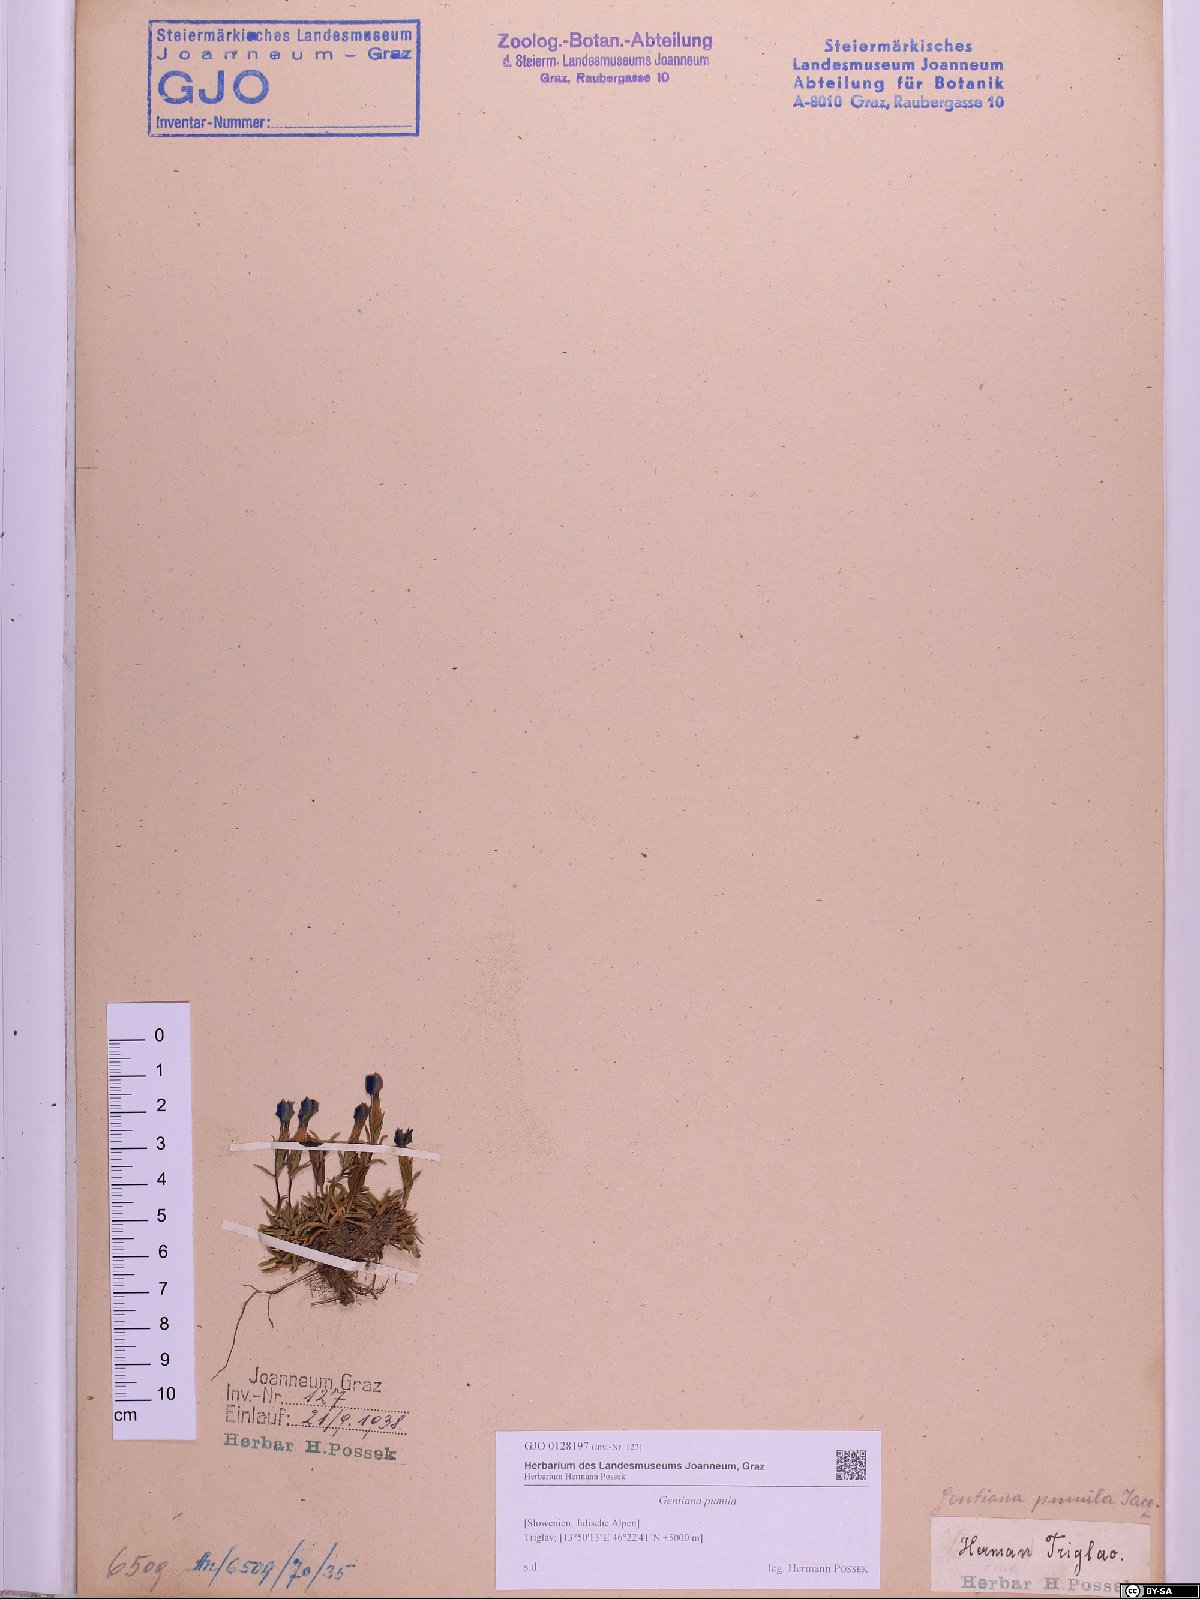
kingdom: Plantae
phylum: Tracheophyta
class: Magnoliopsida
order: Gentianales
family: Gentianaceae
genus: Gentiana
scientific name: Gentiana pumila
